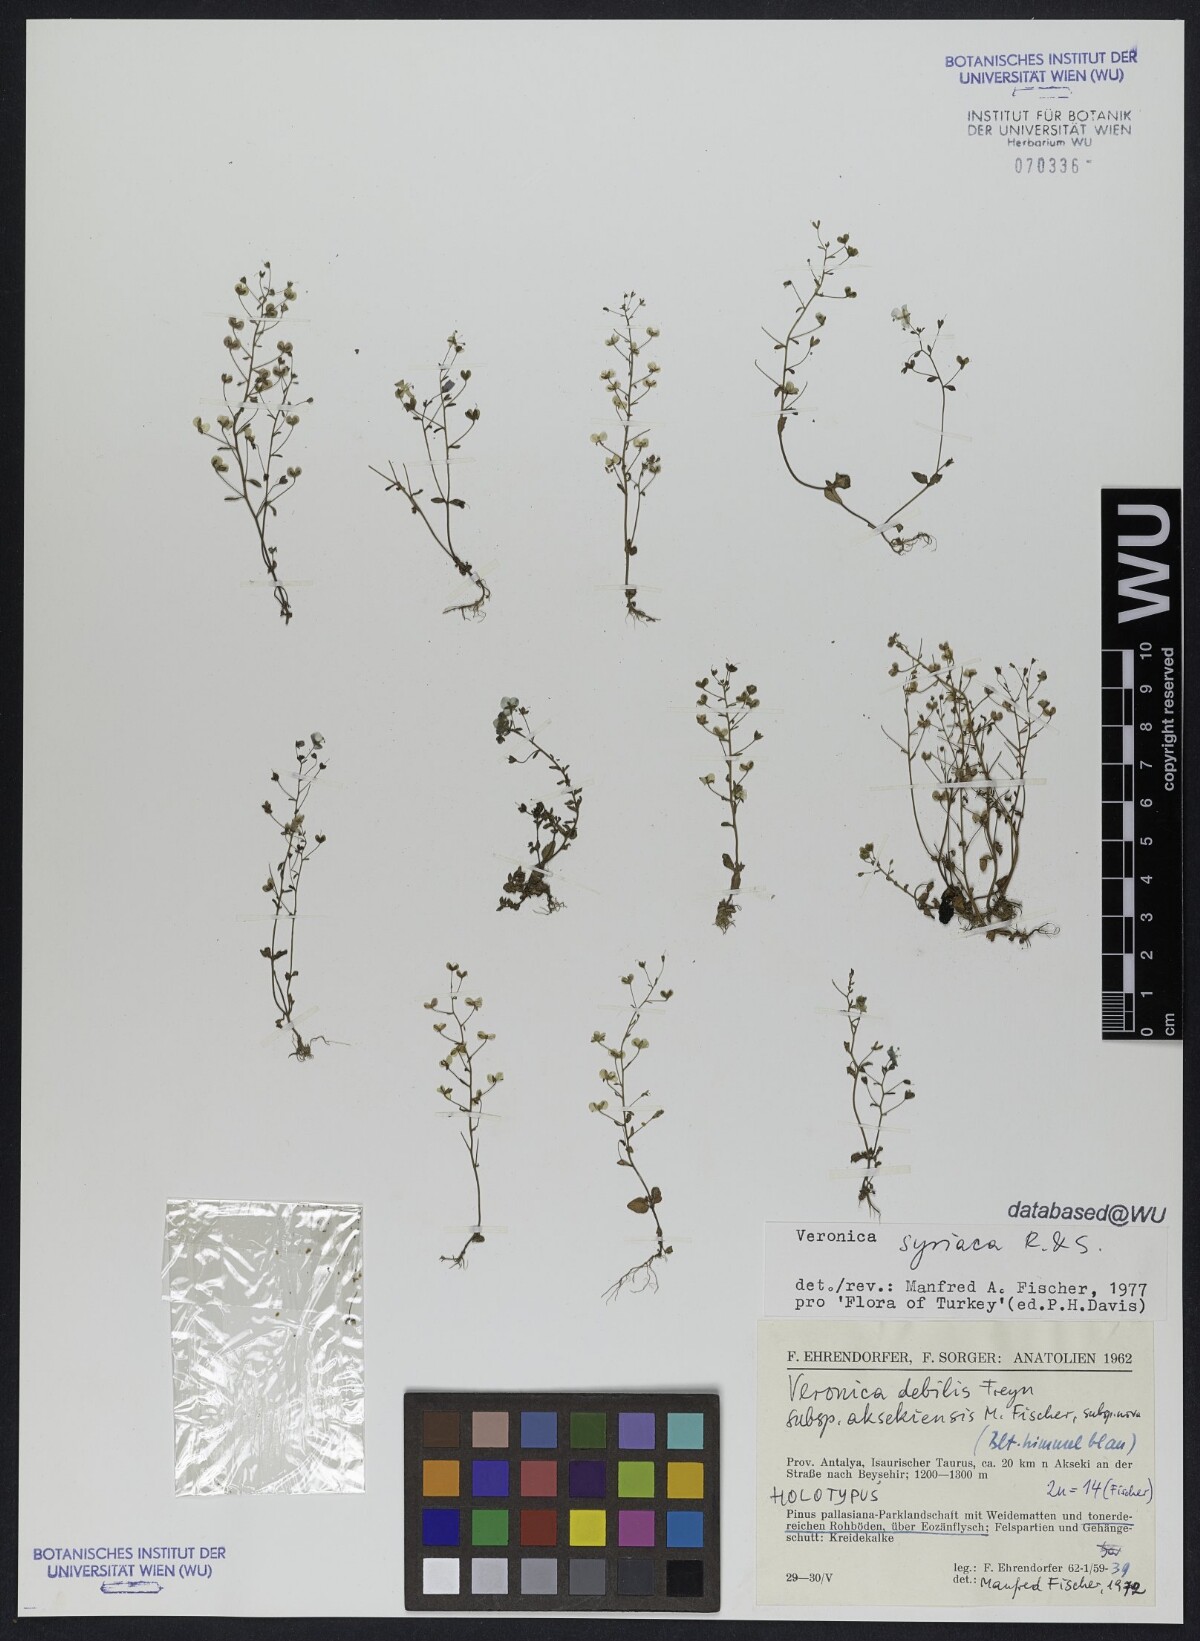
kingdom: Plantae
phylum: Tracheophyta
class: Magnoliopsida
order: Lamiales
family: Plantaginaceae
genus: Veronica
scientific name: Veronica syriaca
